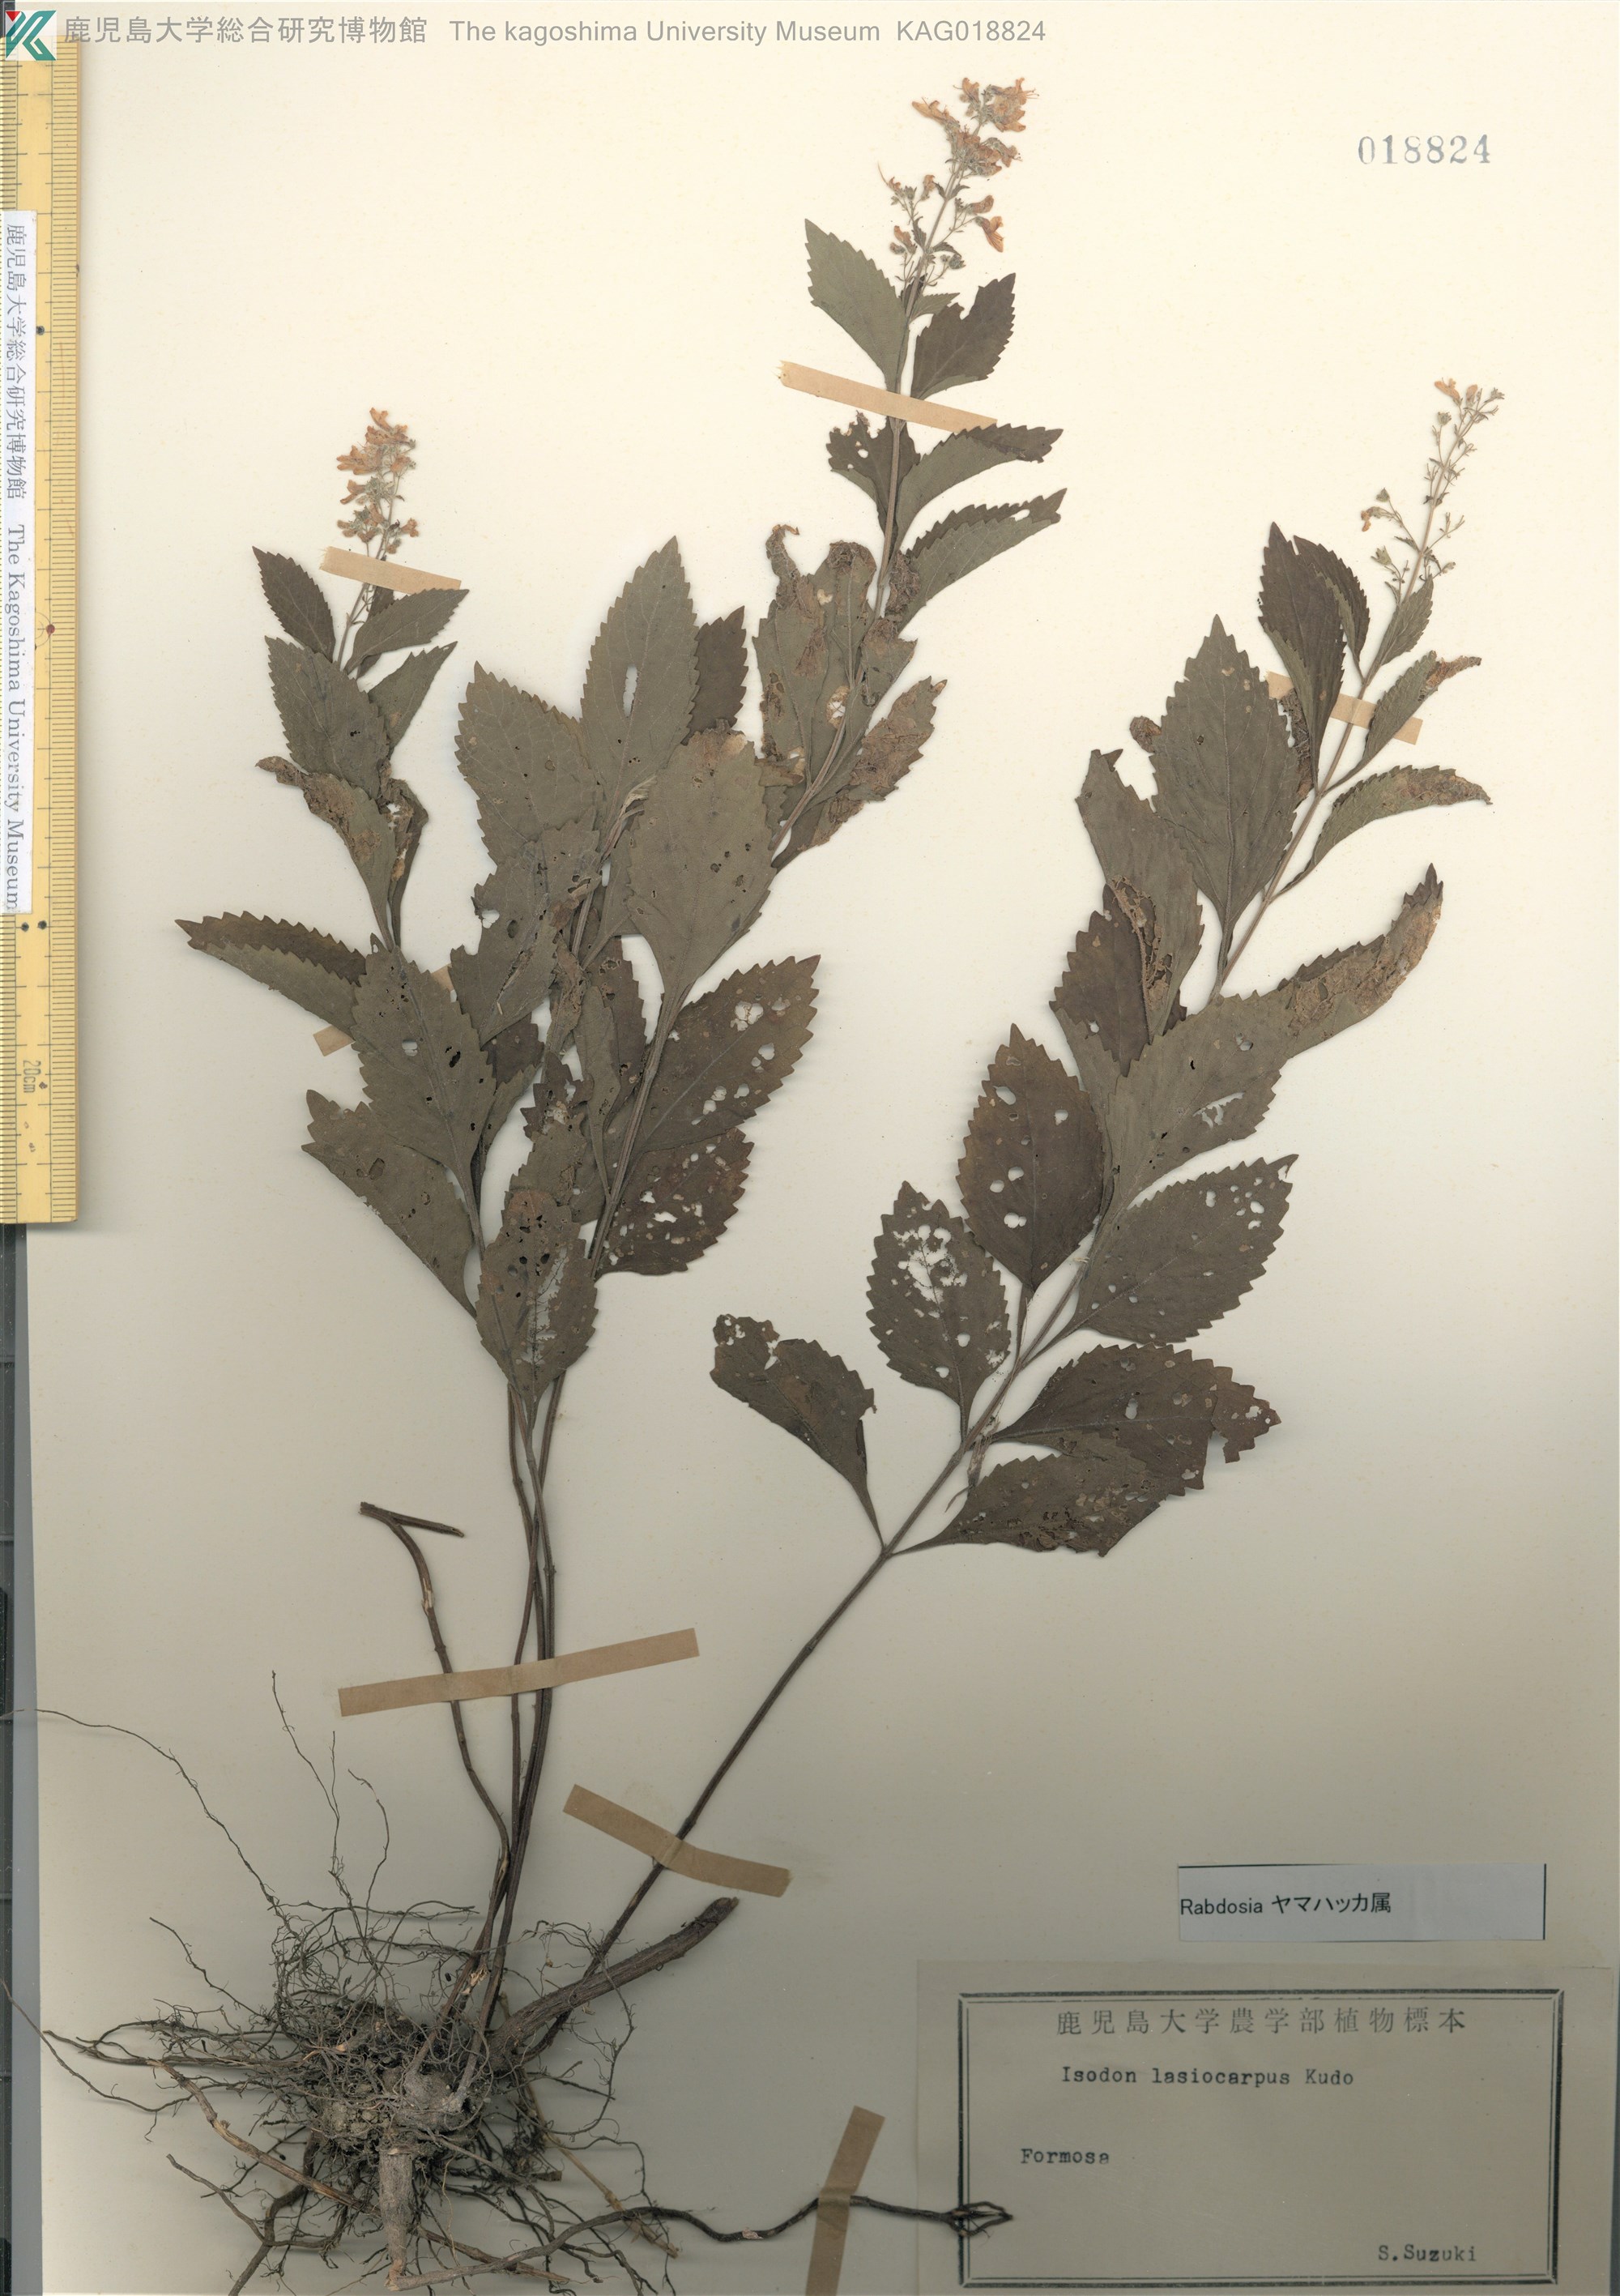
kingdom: Plantae
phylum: Tracheophyta
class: Magnoliopsida
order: Lamiales
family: Lamiaceae
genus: Isodon
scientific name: Isodon serra
